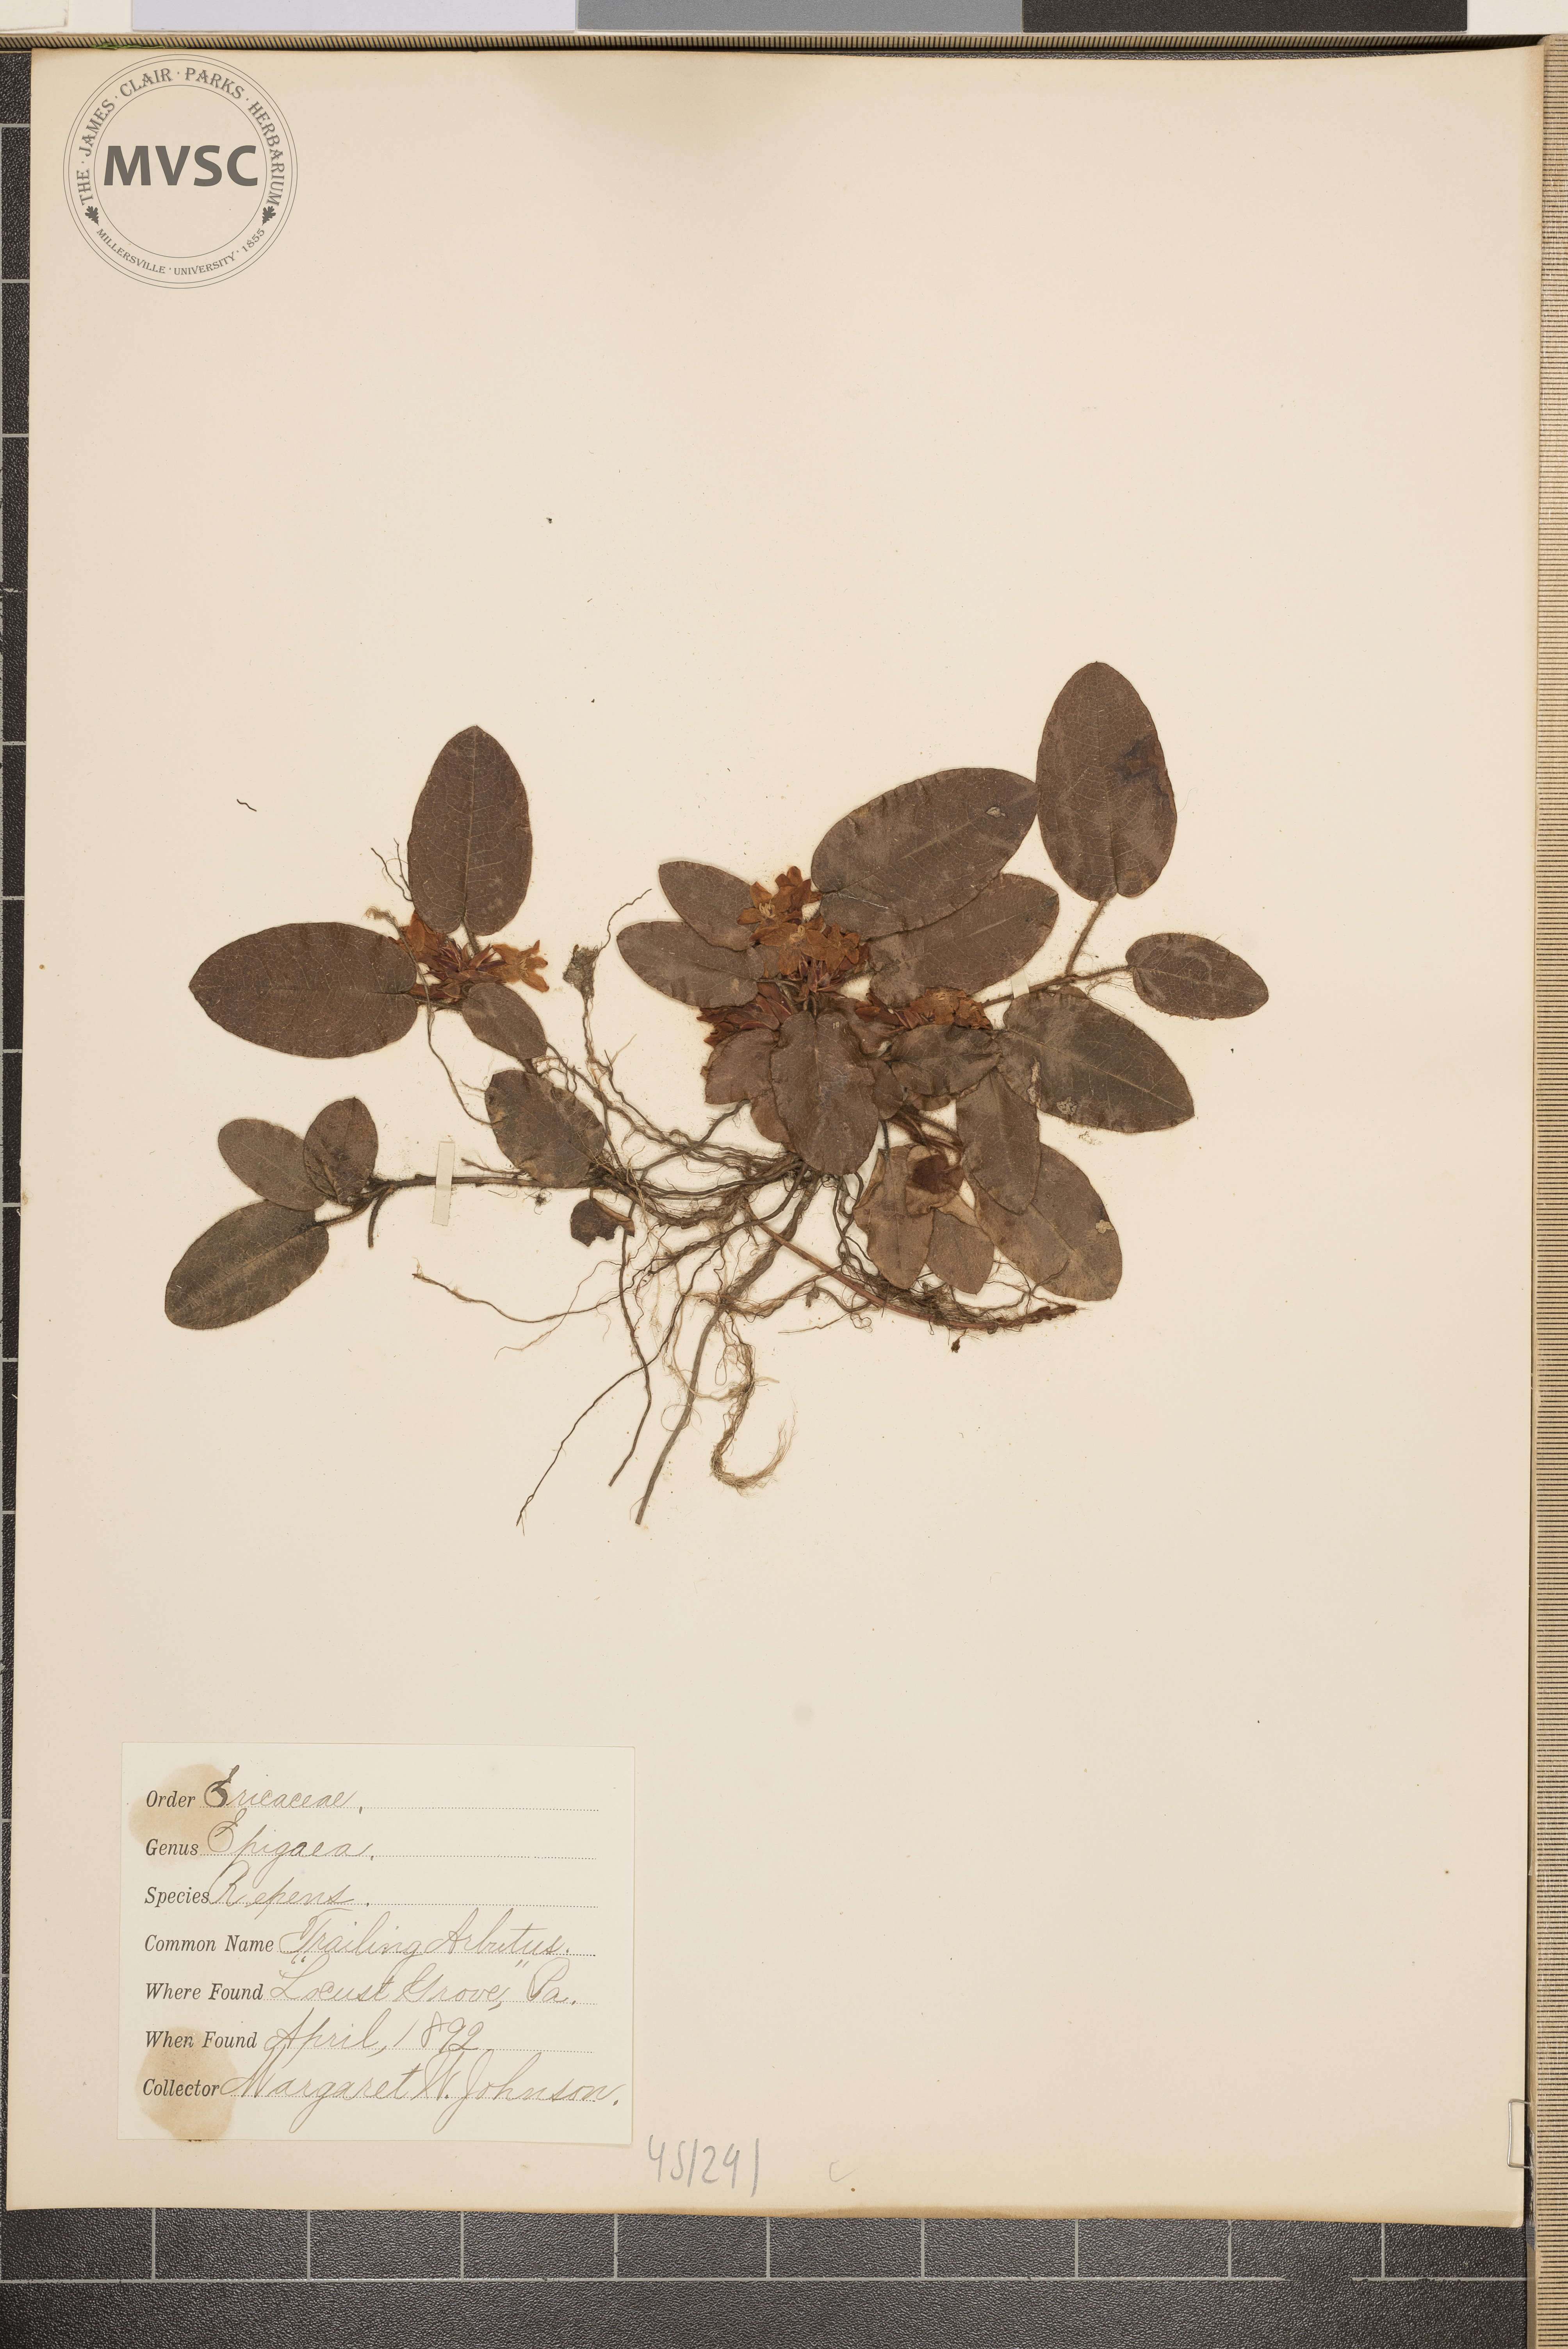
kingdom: Plantae
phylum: Tracheophyta
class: Magnoliopsida
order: Ericales
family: Ericaceae
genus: Epigaea
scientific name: Epigaea repens
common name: Trailing arbutus
